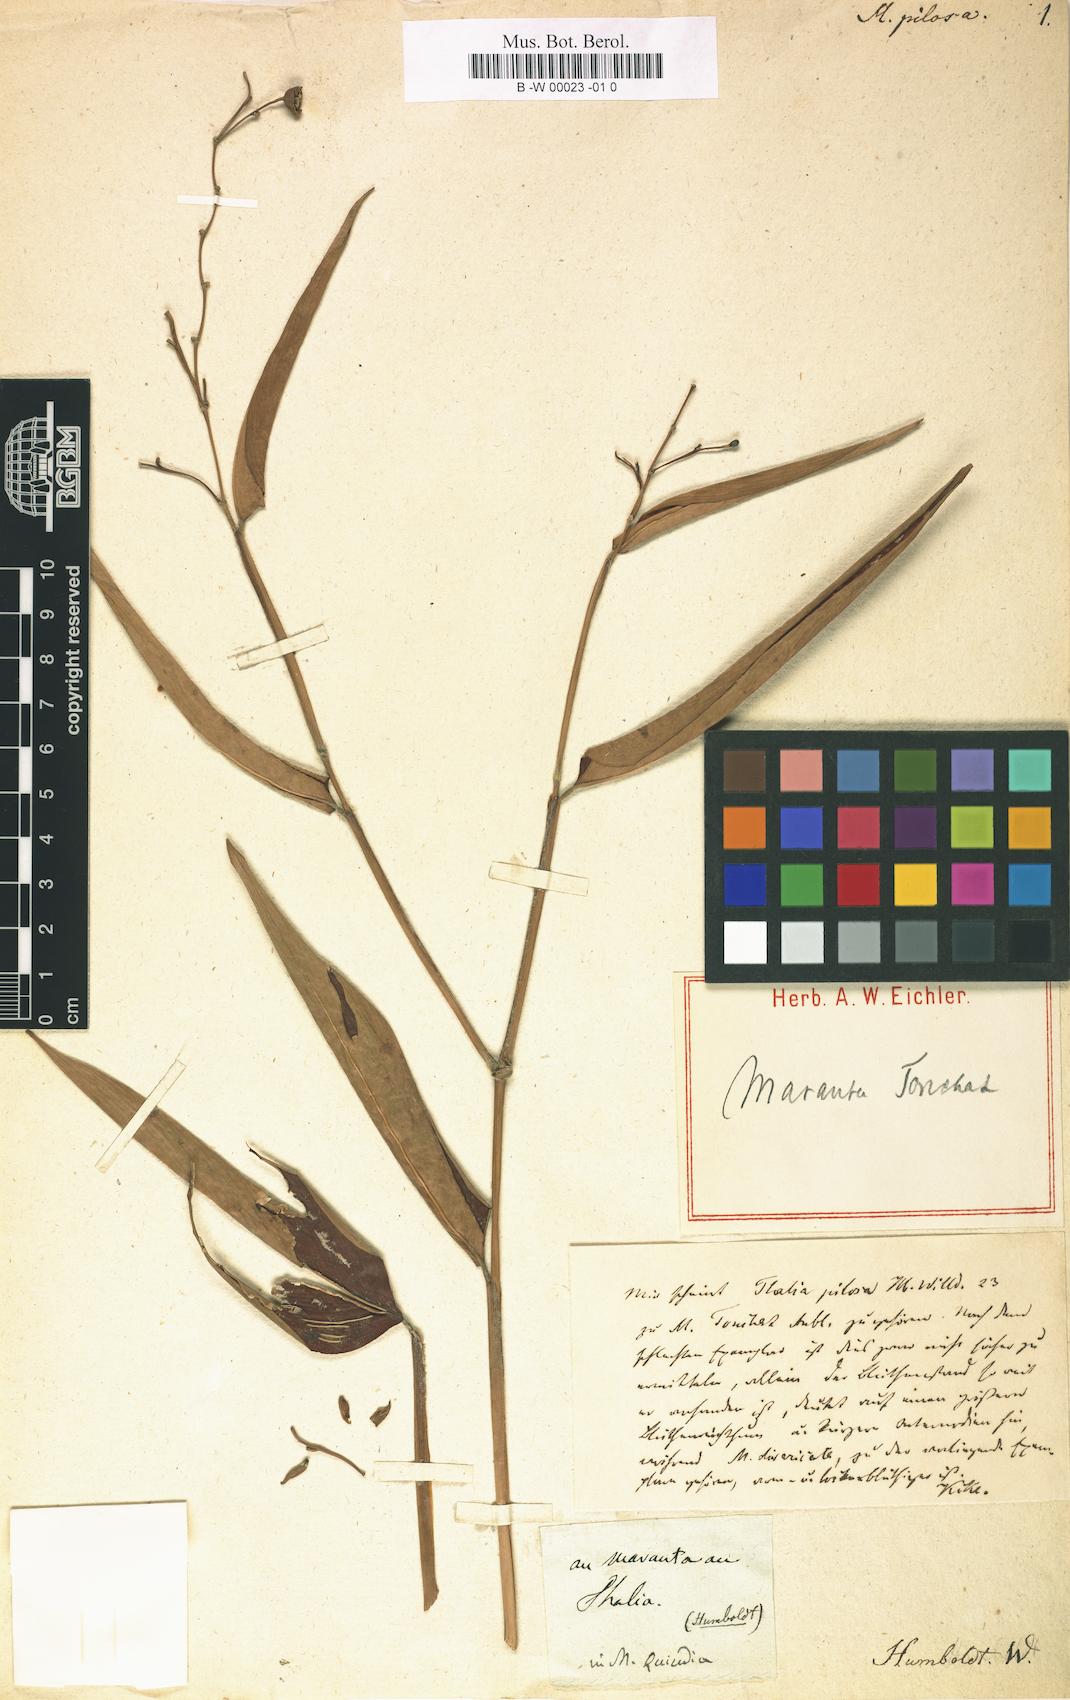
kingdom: Plantae
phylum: Tracheophyta
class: Liliopsida
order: Zingiberales
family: Marantaceae
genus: Stromanthe
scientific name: Stromanthe tonckat
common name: Stromanthe
